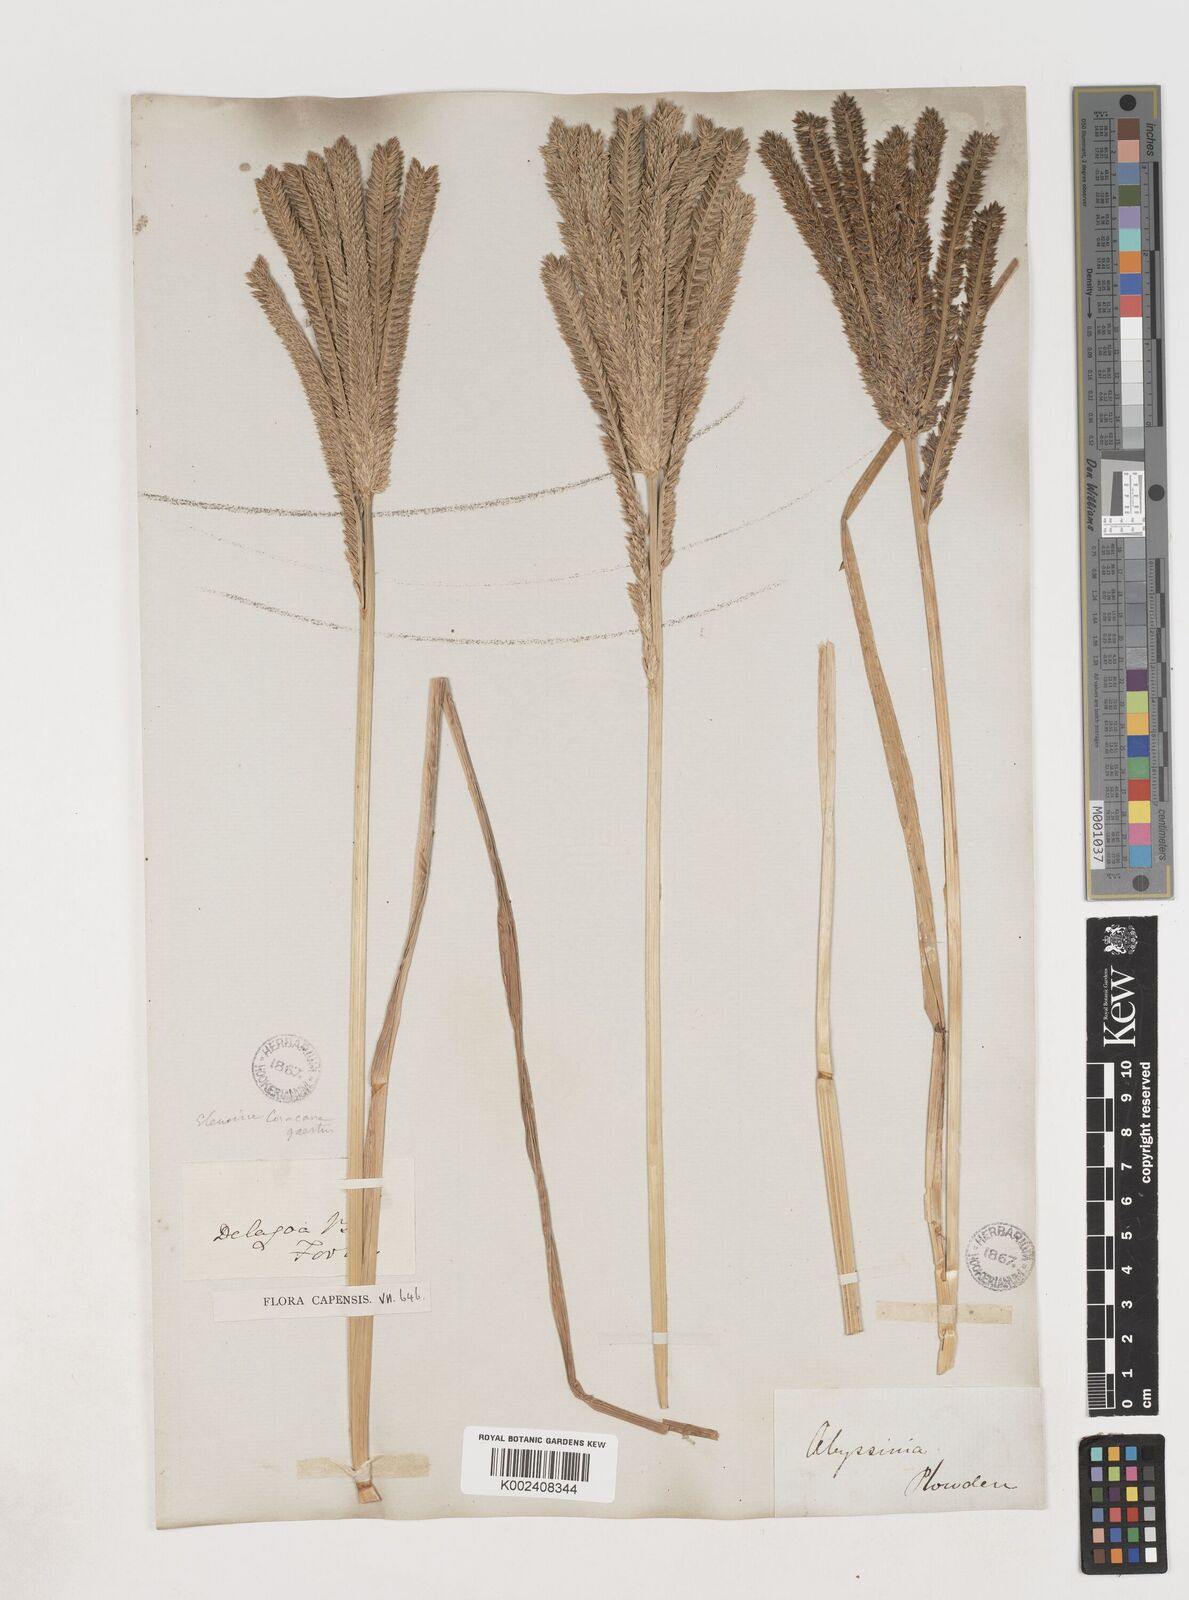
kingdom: Plantae
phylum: Tracheophyta
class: Liliopsida
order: Poales
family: Poaceae
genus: Eleusine
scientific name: Eleusine coracana
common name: Finger millet
